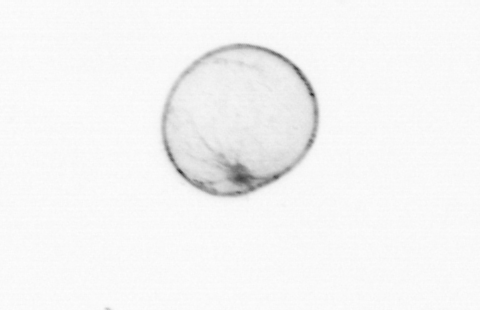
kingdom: Chromista
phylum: Myzozoa
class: Dinophyceae
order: Noctilucales
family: Noctilucaceae
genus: Noctiluca
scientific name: Noctiluca scintillans
